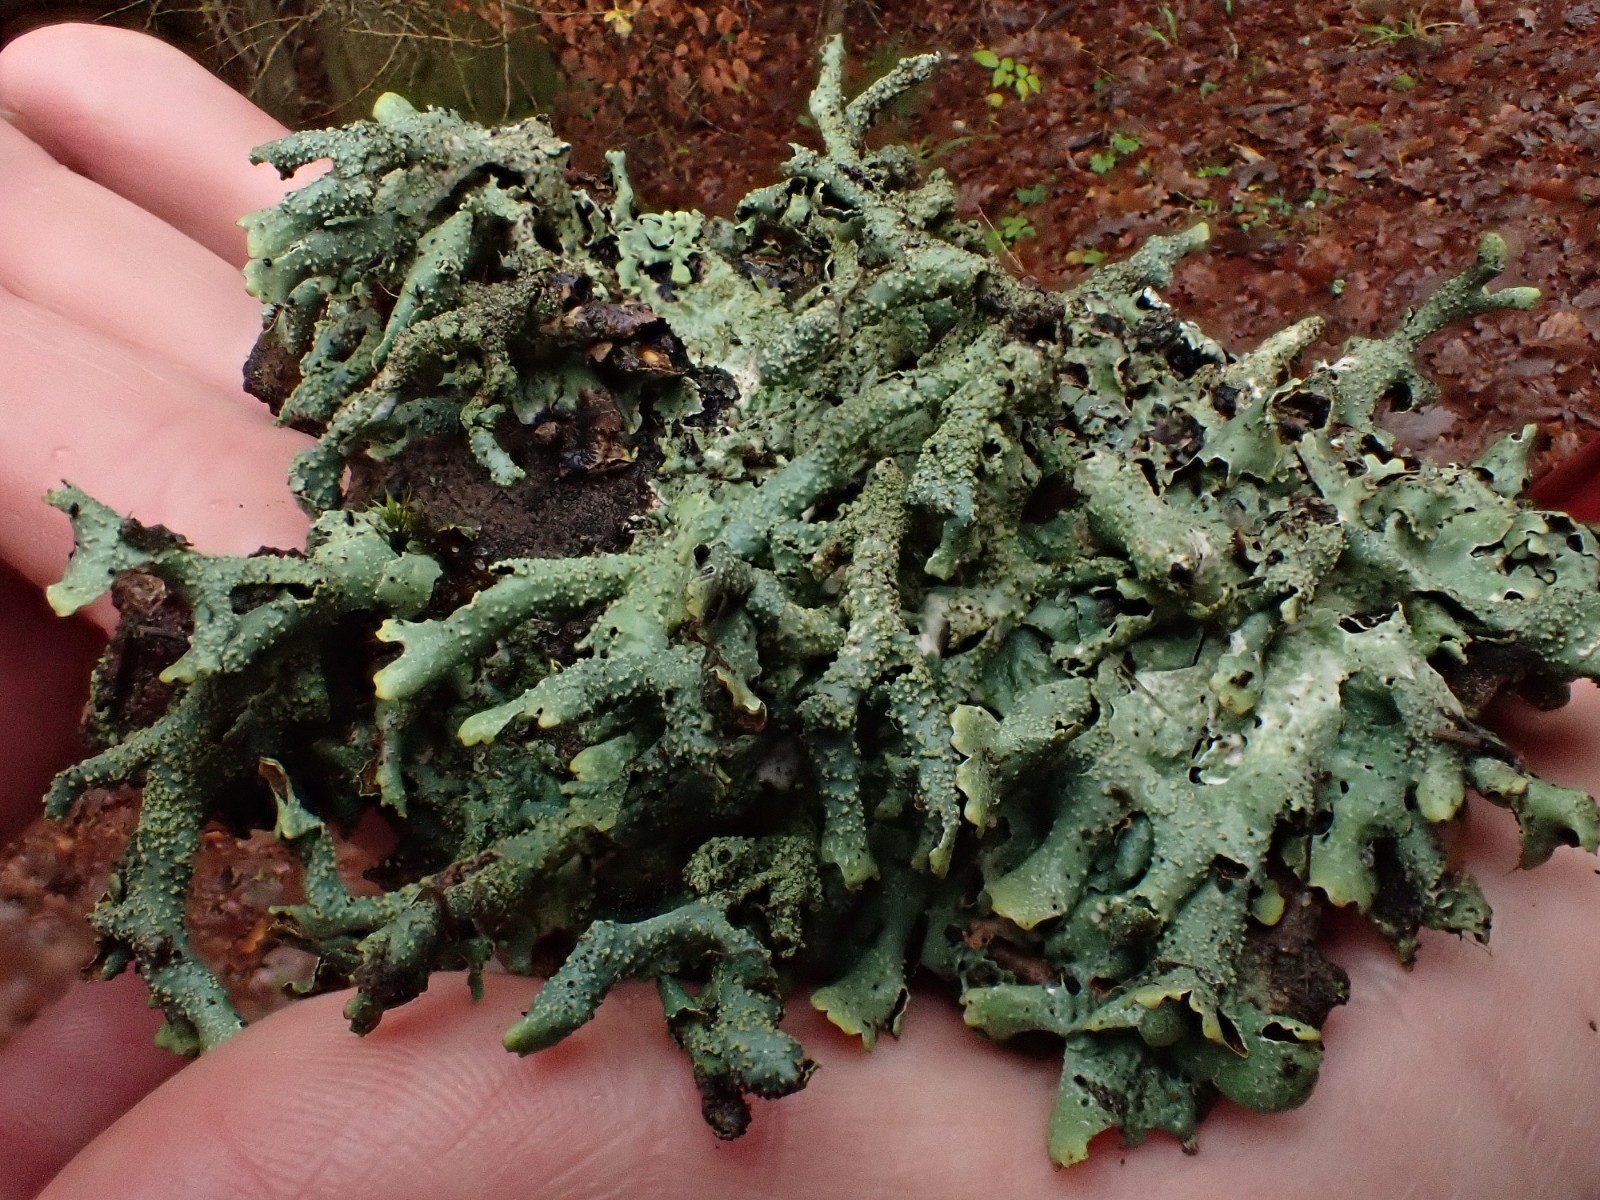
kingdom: Fungi
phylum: Ascomycota
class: Lecanoromycetes
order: Lecanorales
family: Parmeliaceae
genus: Parmelia
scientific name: Parmelia submontana
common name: langlobet skållav
